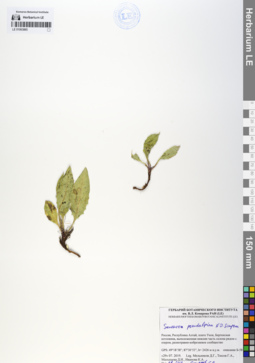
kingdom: Plantae
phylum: Tracheophyta
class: Magnoliopsida
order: Asterales
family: Asteraceae
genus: Saussurea
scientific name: Saussurea pseudoalpina
